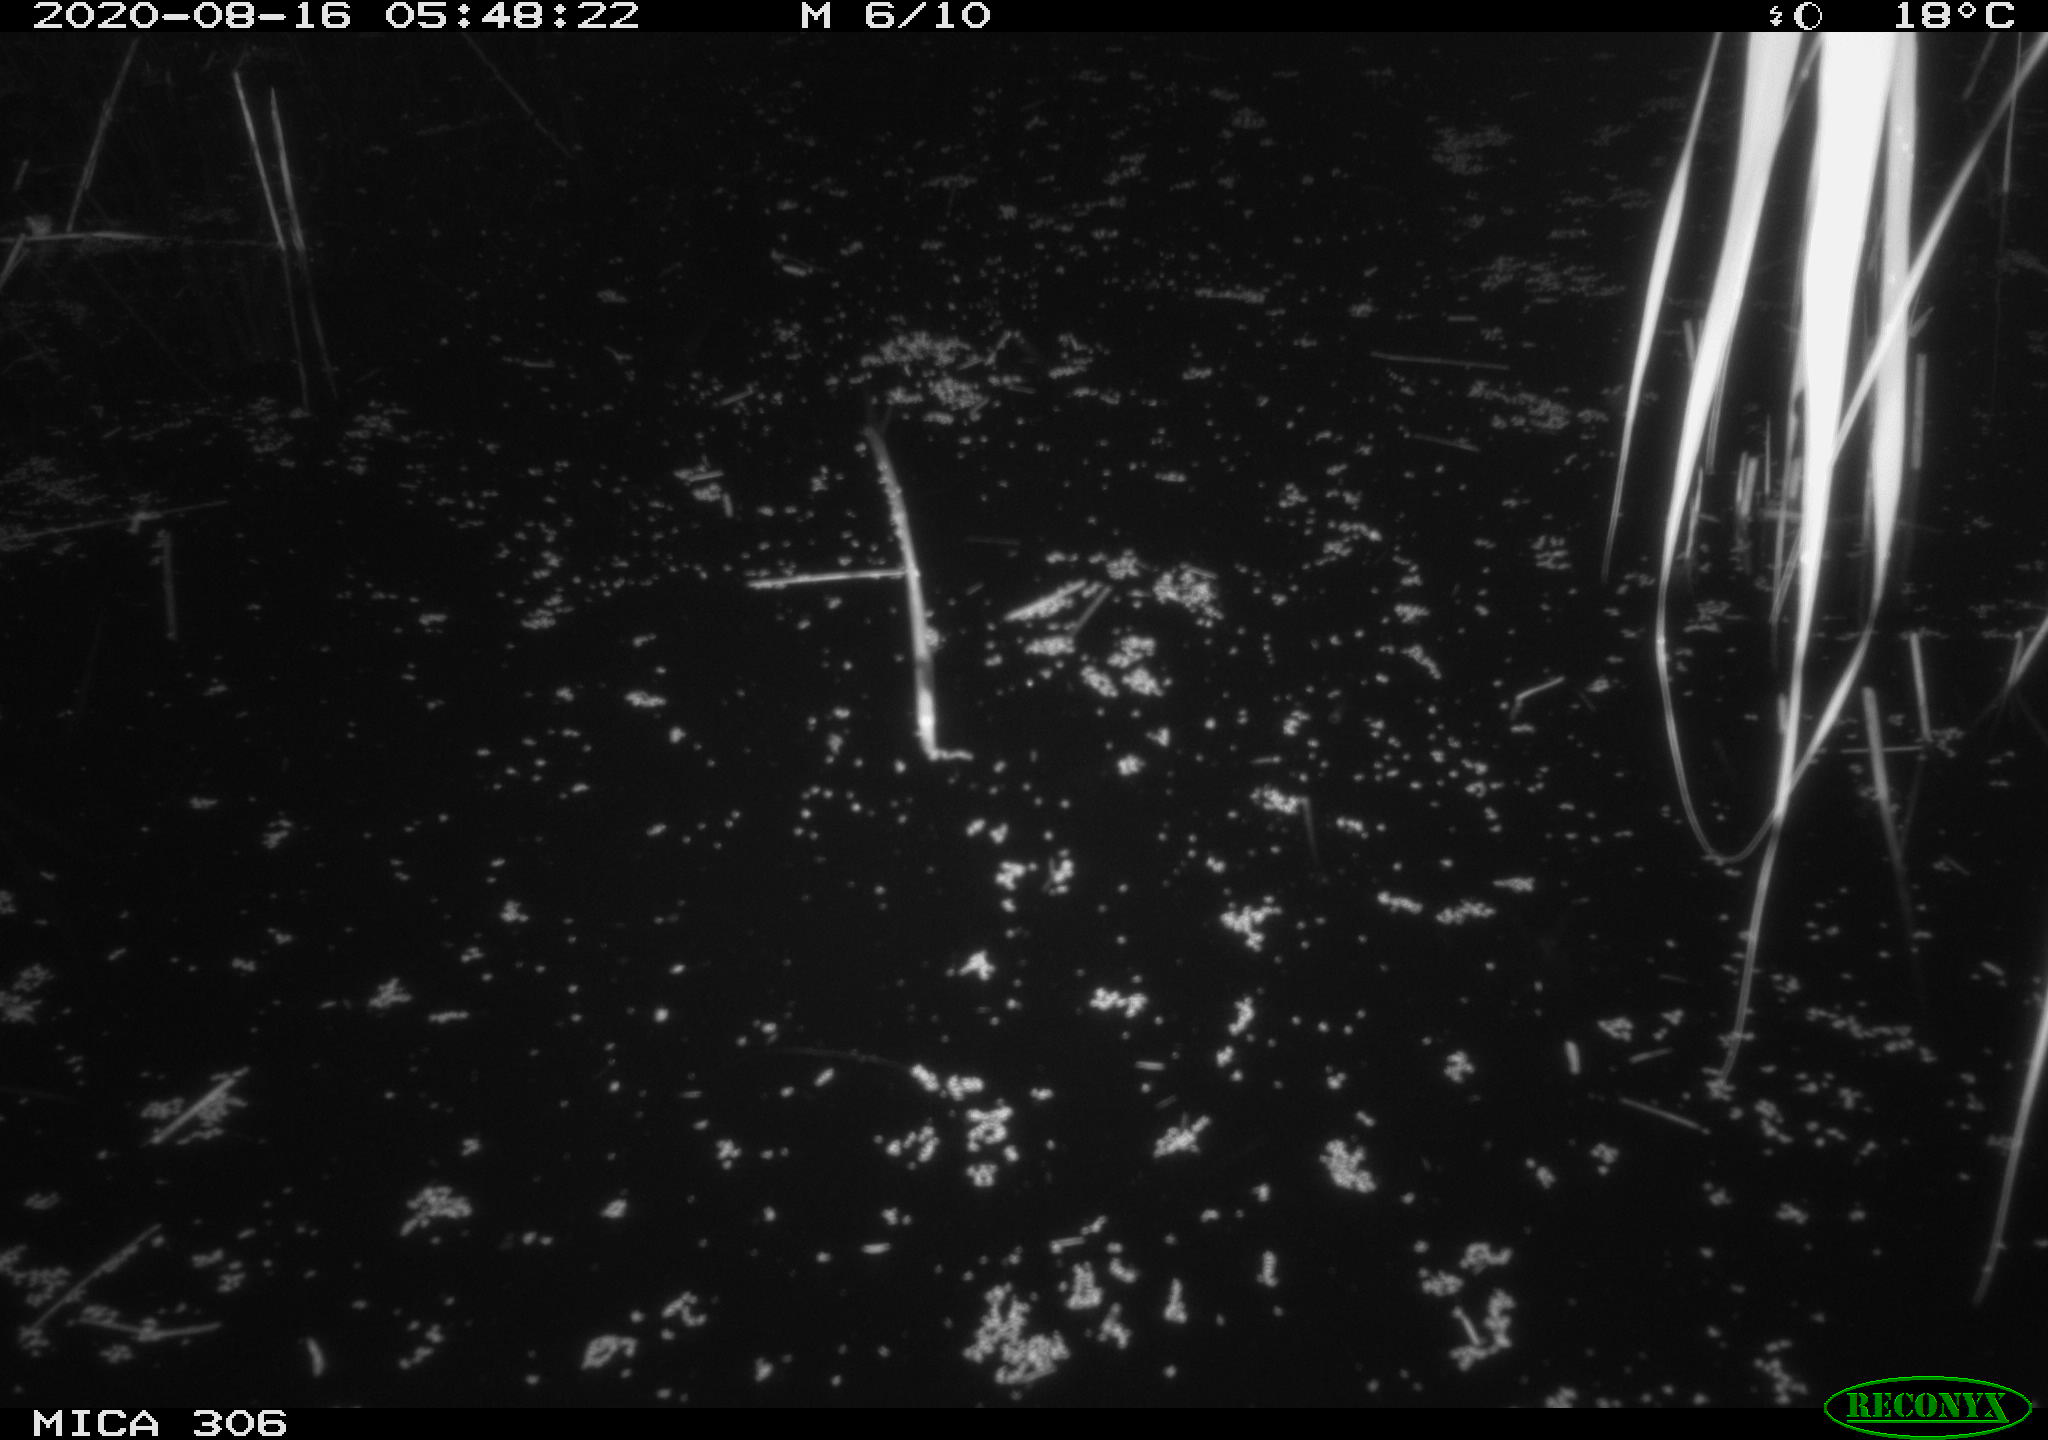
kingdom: Animalia
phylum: Chordata
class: Mammalia
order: Rodentia
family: Muridae
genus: Rattus
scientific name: Rattus norvegicus
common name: Brown rat
